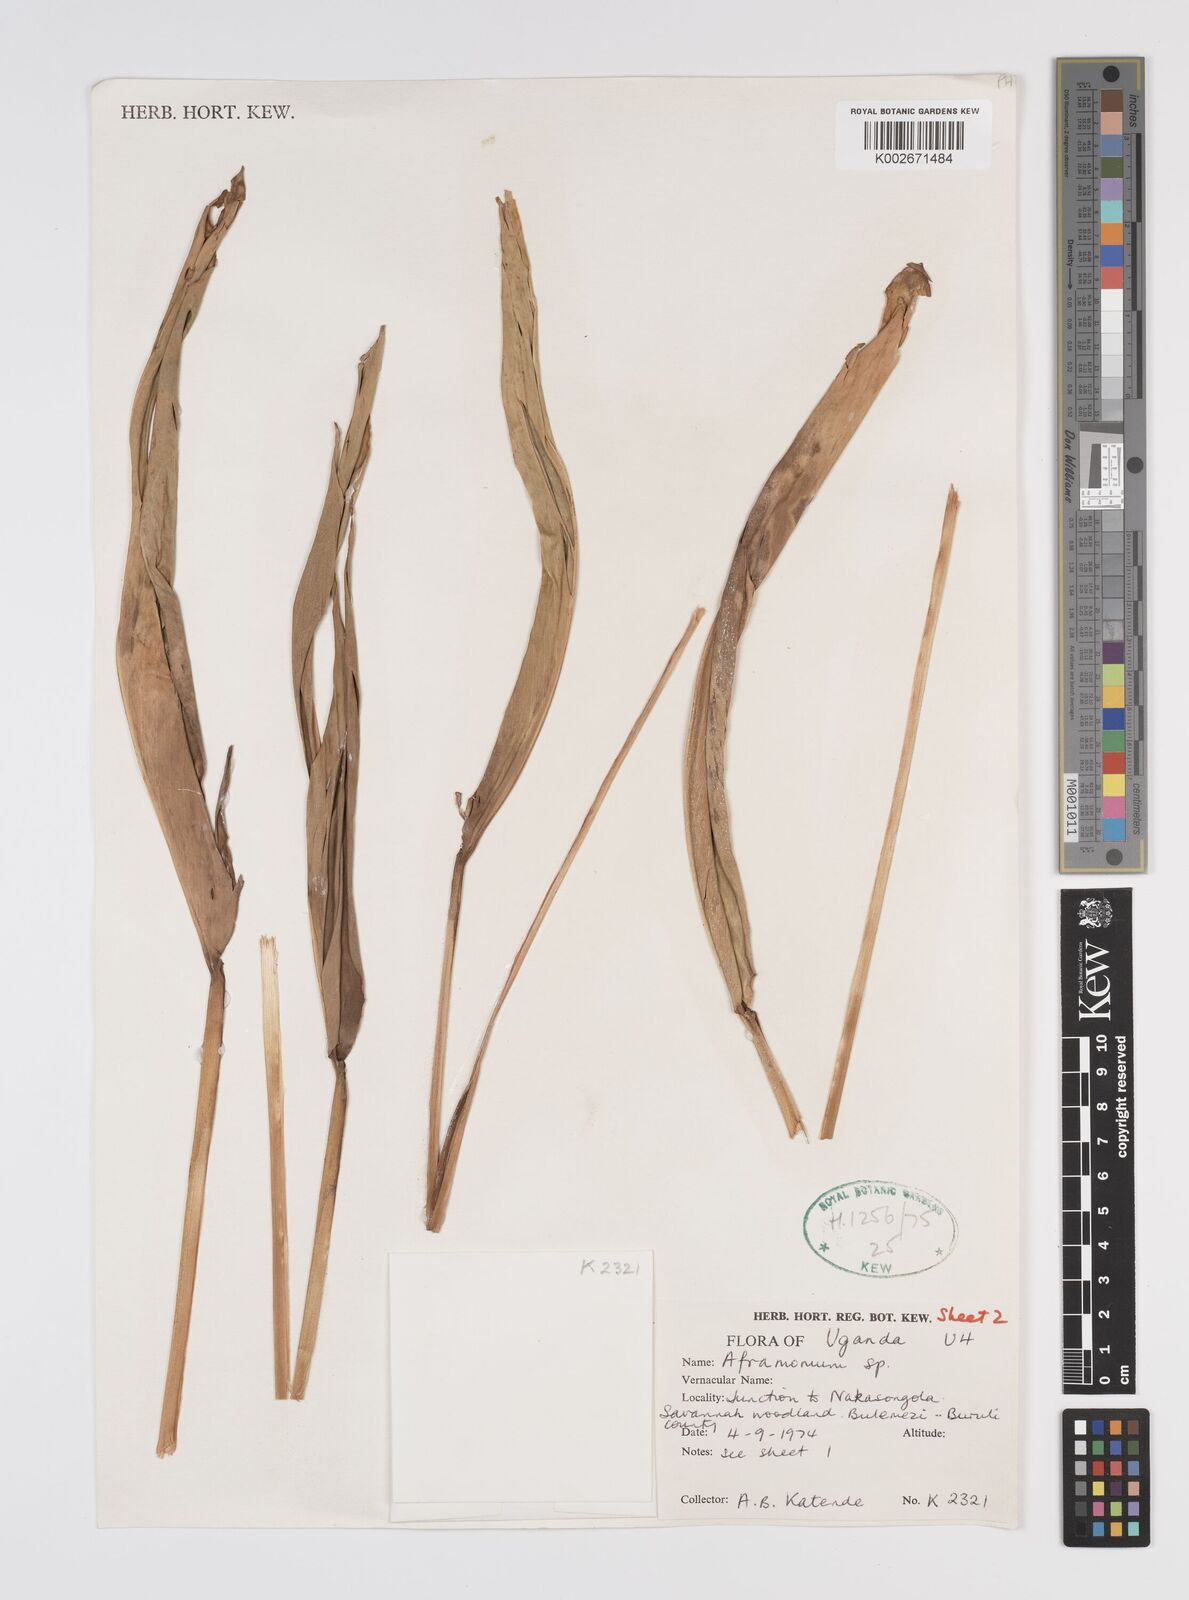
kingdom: Plantae
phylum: Tracheophyta
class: Liliopsida
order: Zingiberales
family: Zingiberaceae
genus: Aframomum
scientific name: Aframomum alboviolaceum
